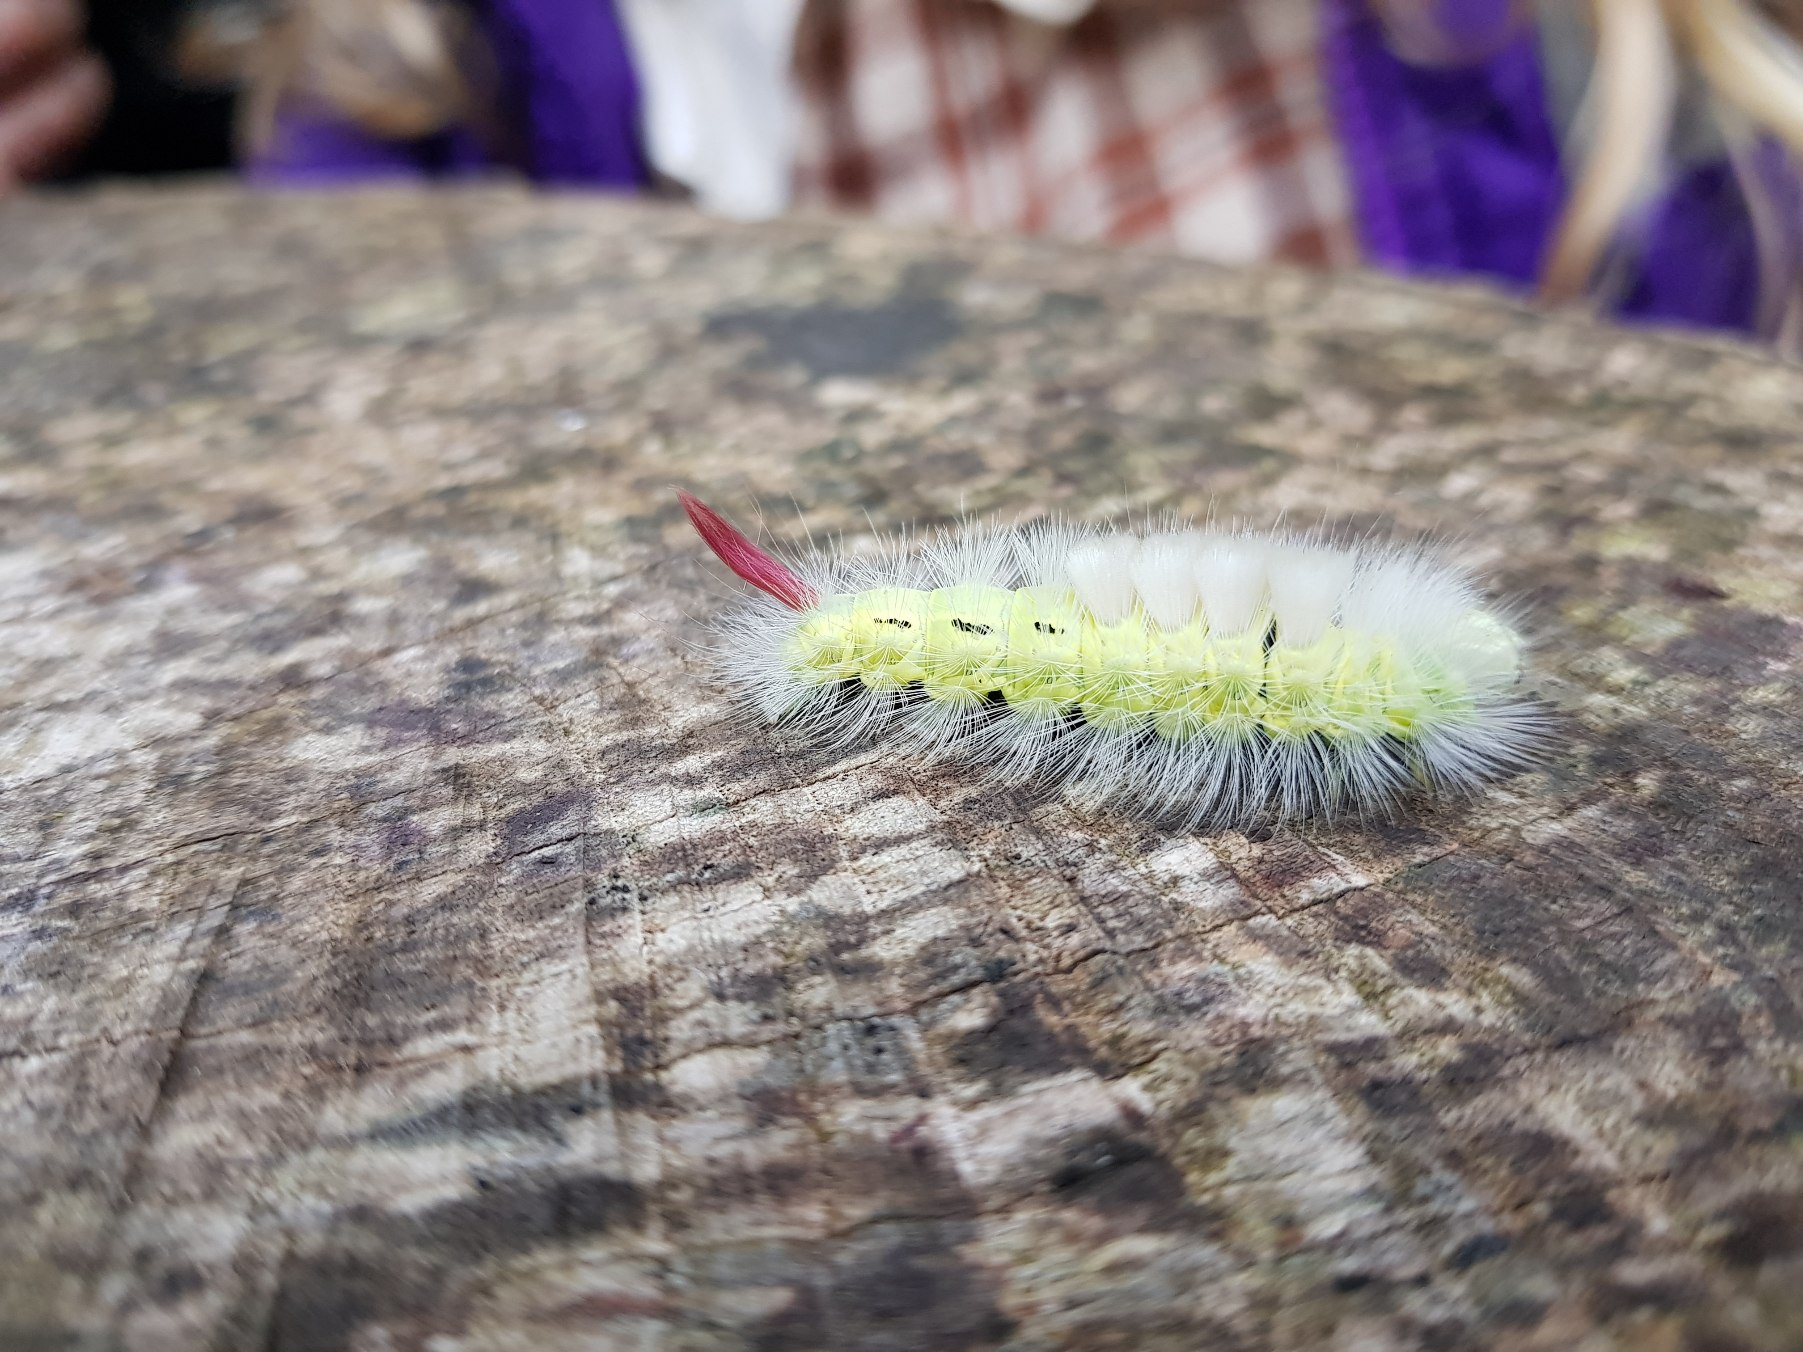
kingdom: Animalia
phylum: Arthropoda
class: Insecta
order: Lepidoptera
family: Erebidae
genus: Calliteara
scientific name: Calliteara pudibunda
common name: Bøgenonne
